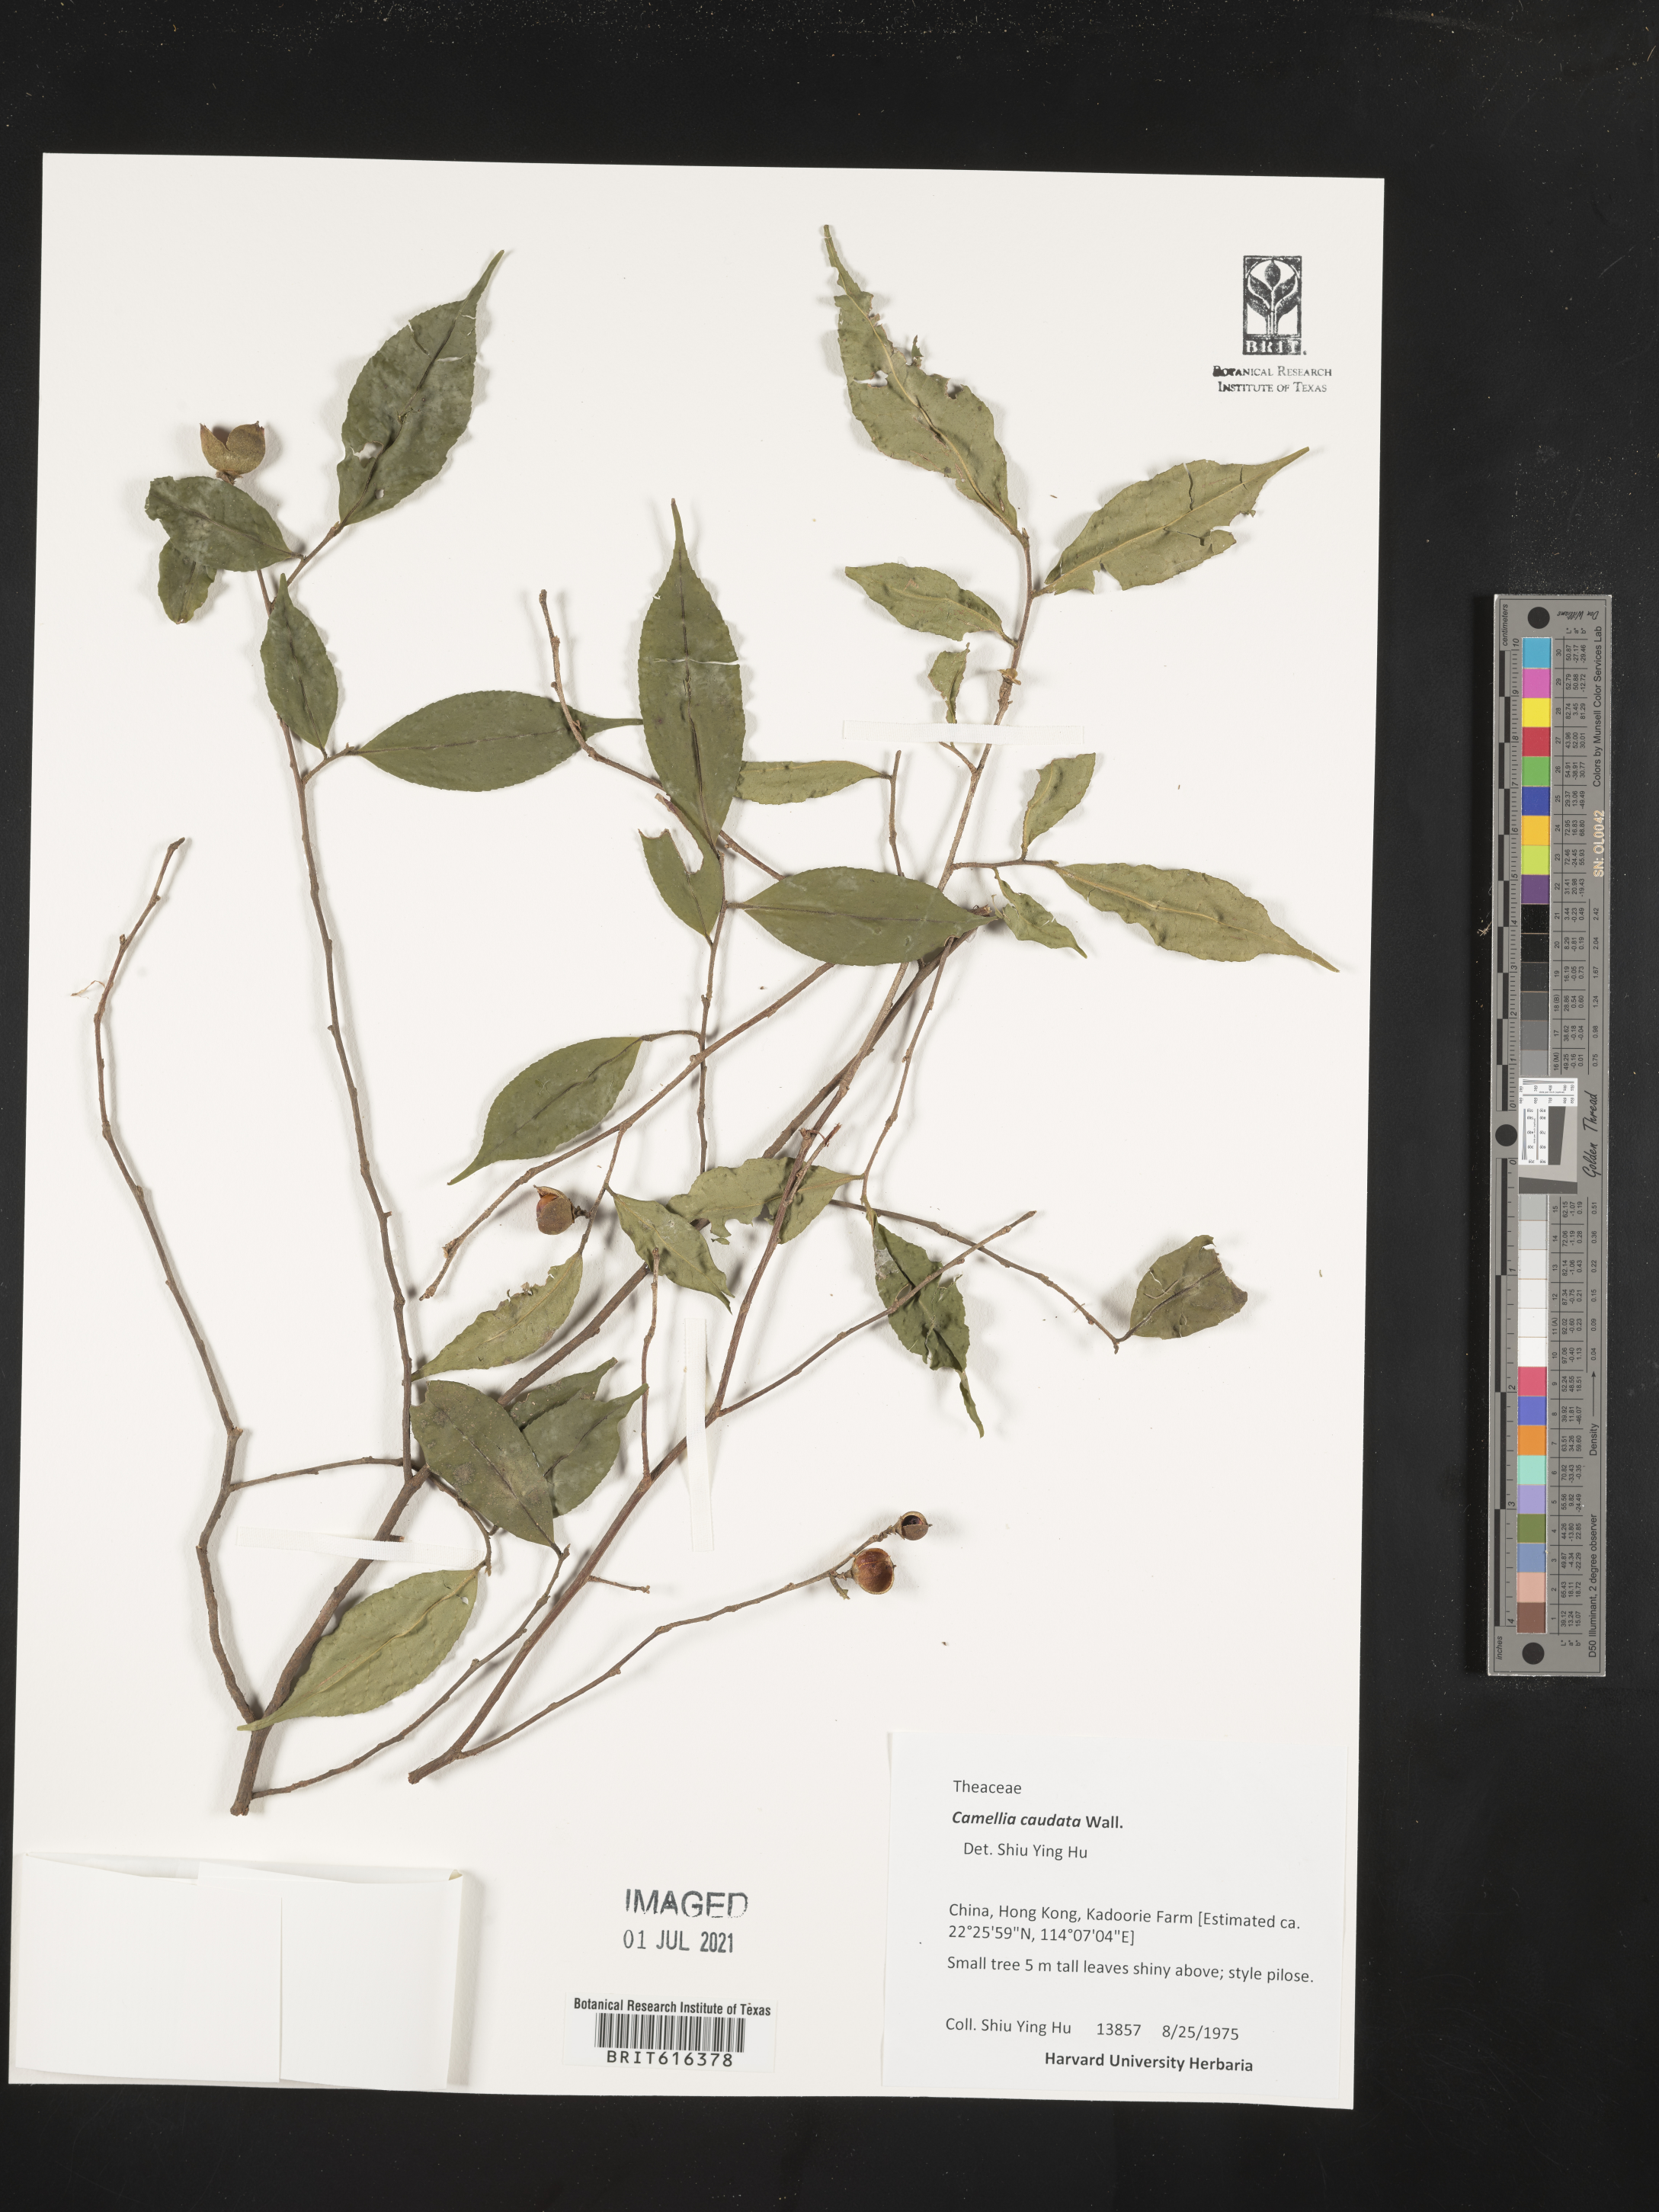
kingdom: Plantae
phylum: Tracheophyta
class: Magnoliopsida
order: Ericales
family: Theaceae
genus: Camellia
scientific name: Camellia caudata
